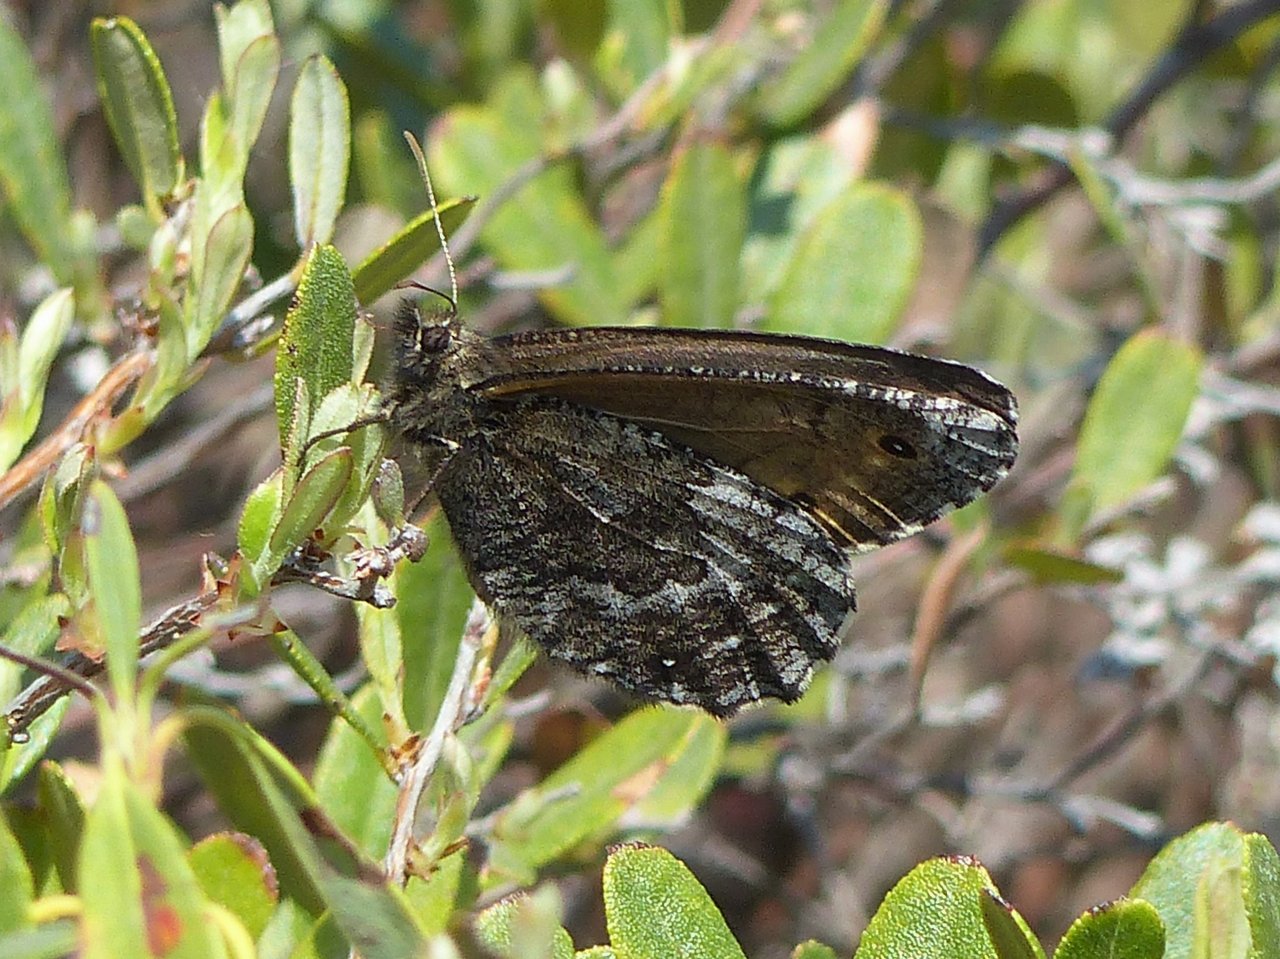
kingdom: Animalia
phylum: Arthropoda
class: Insecta
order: Lepidoptera
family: Nymphalidae
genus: Oeneis
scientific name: Oeneis jutta
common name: Jutta Arctic
